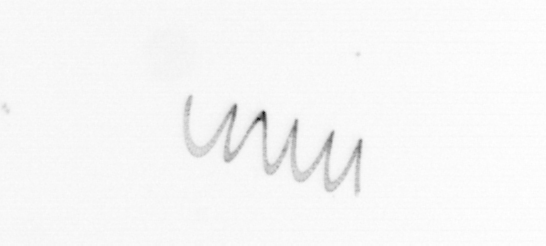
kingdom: Chromista
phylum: Ochrophyta
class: Bacillariophyceae
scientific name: Bacillariophyceae
